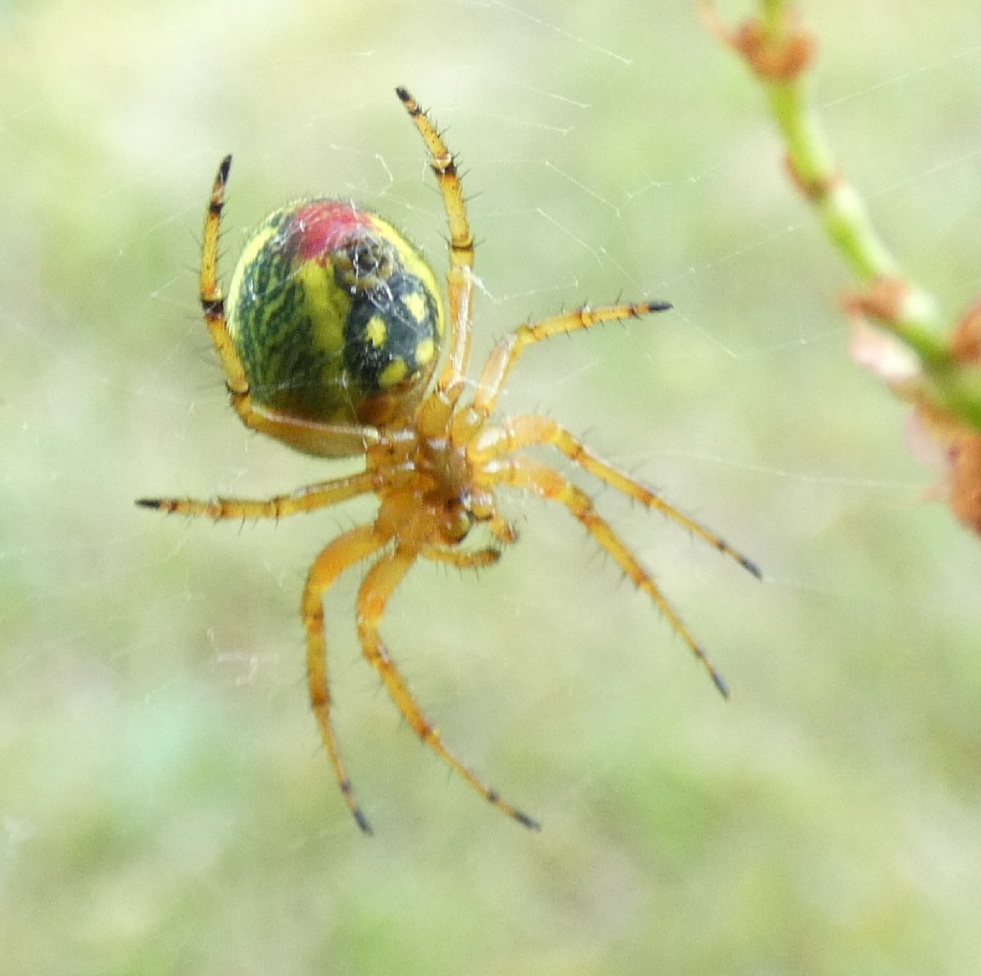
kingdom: Animalia
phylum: Arthropoda
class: Arachnida
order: Araneae
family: Araneidae
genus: Araniella
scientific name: Araniella alpica
